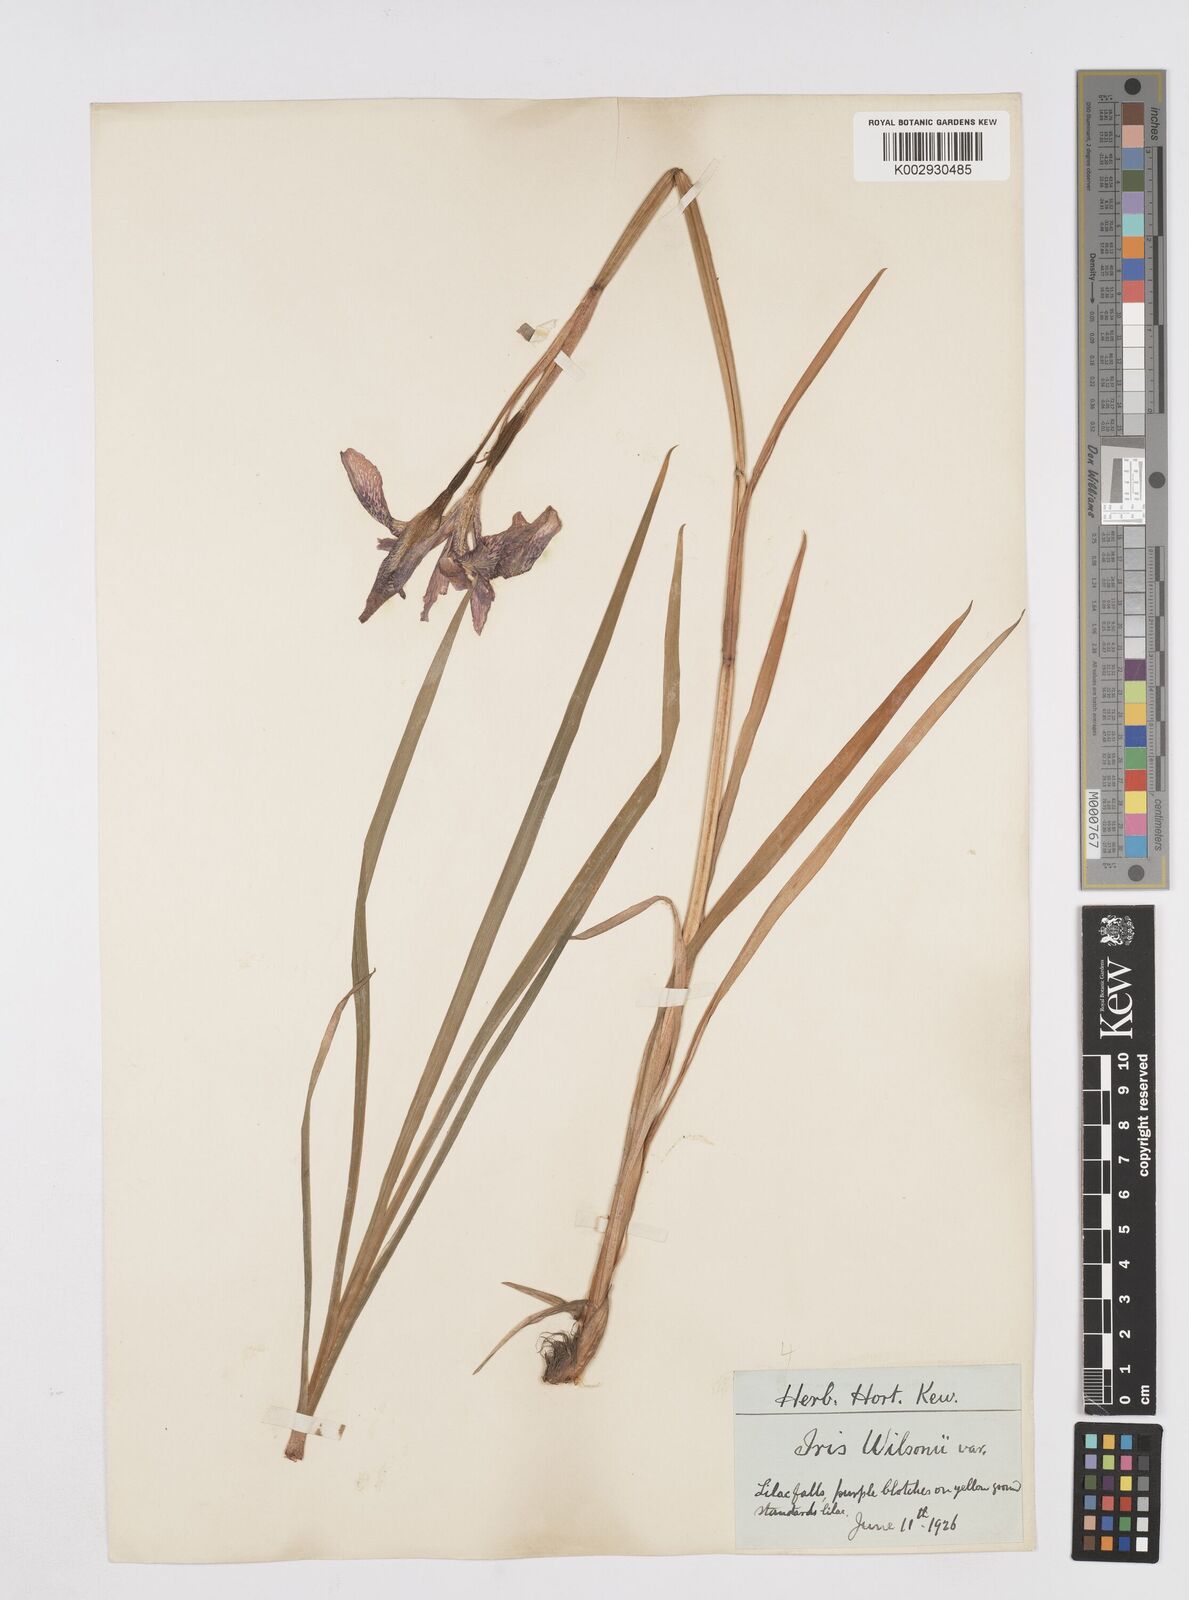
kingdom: Plantae
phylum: Tracheophyta
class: Liliopsida
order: Asparagales
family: Iridaceae
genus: Iris
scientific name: Iris wilsonii
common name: Yellow-flower iris
